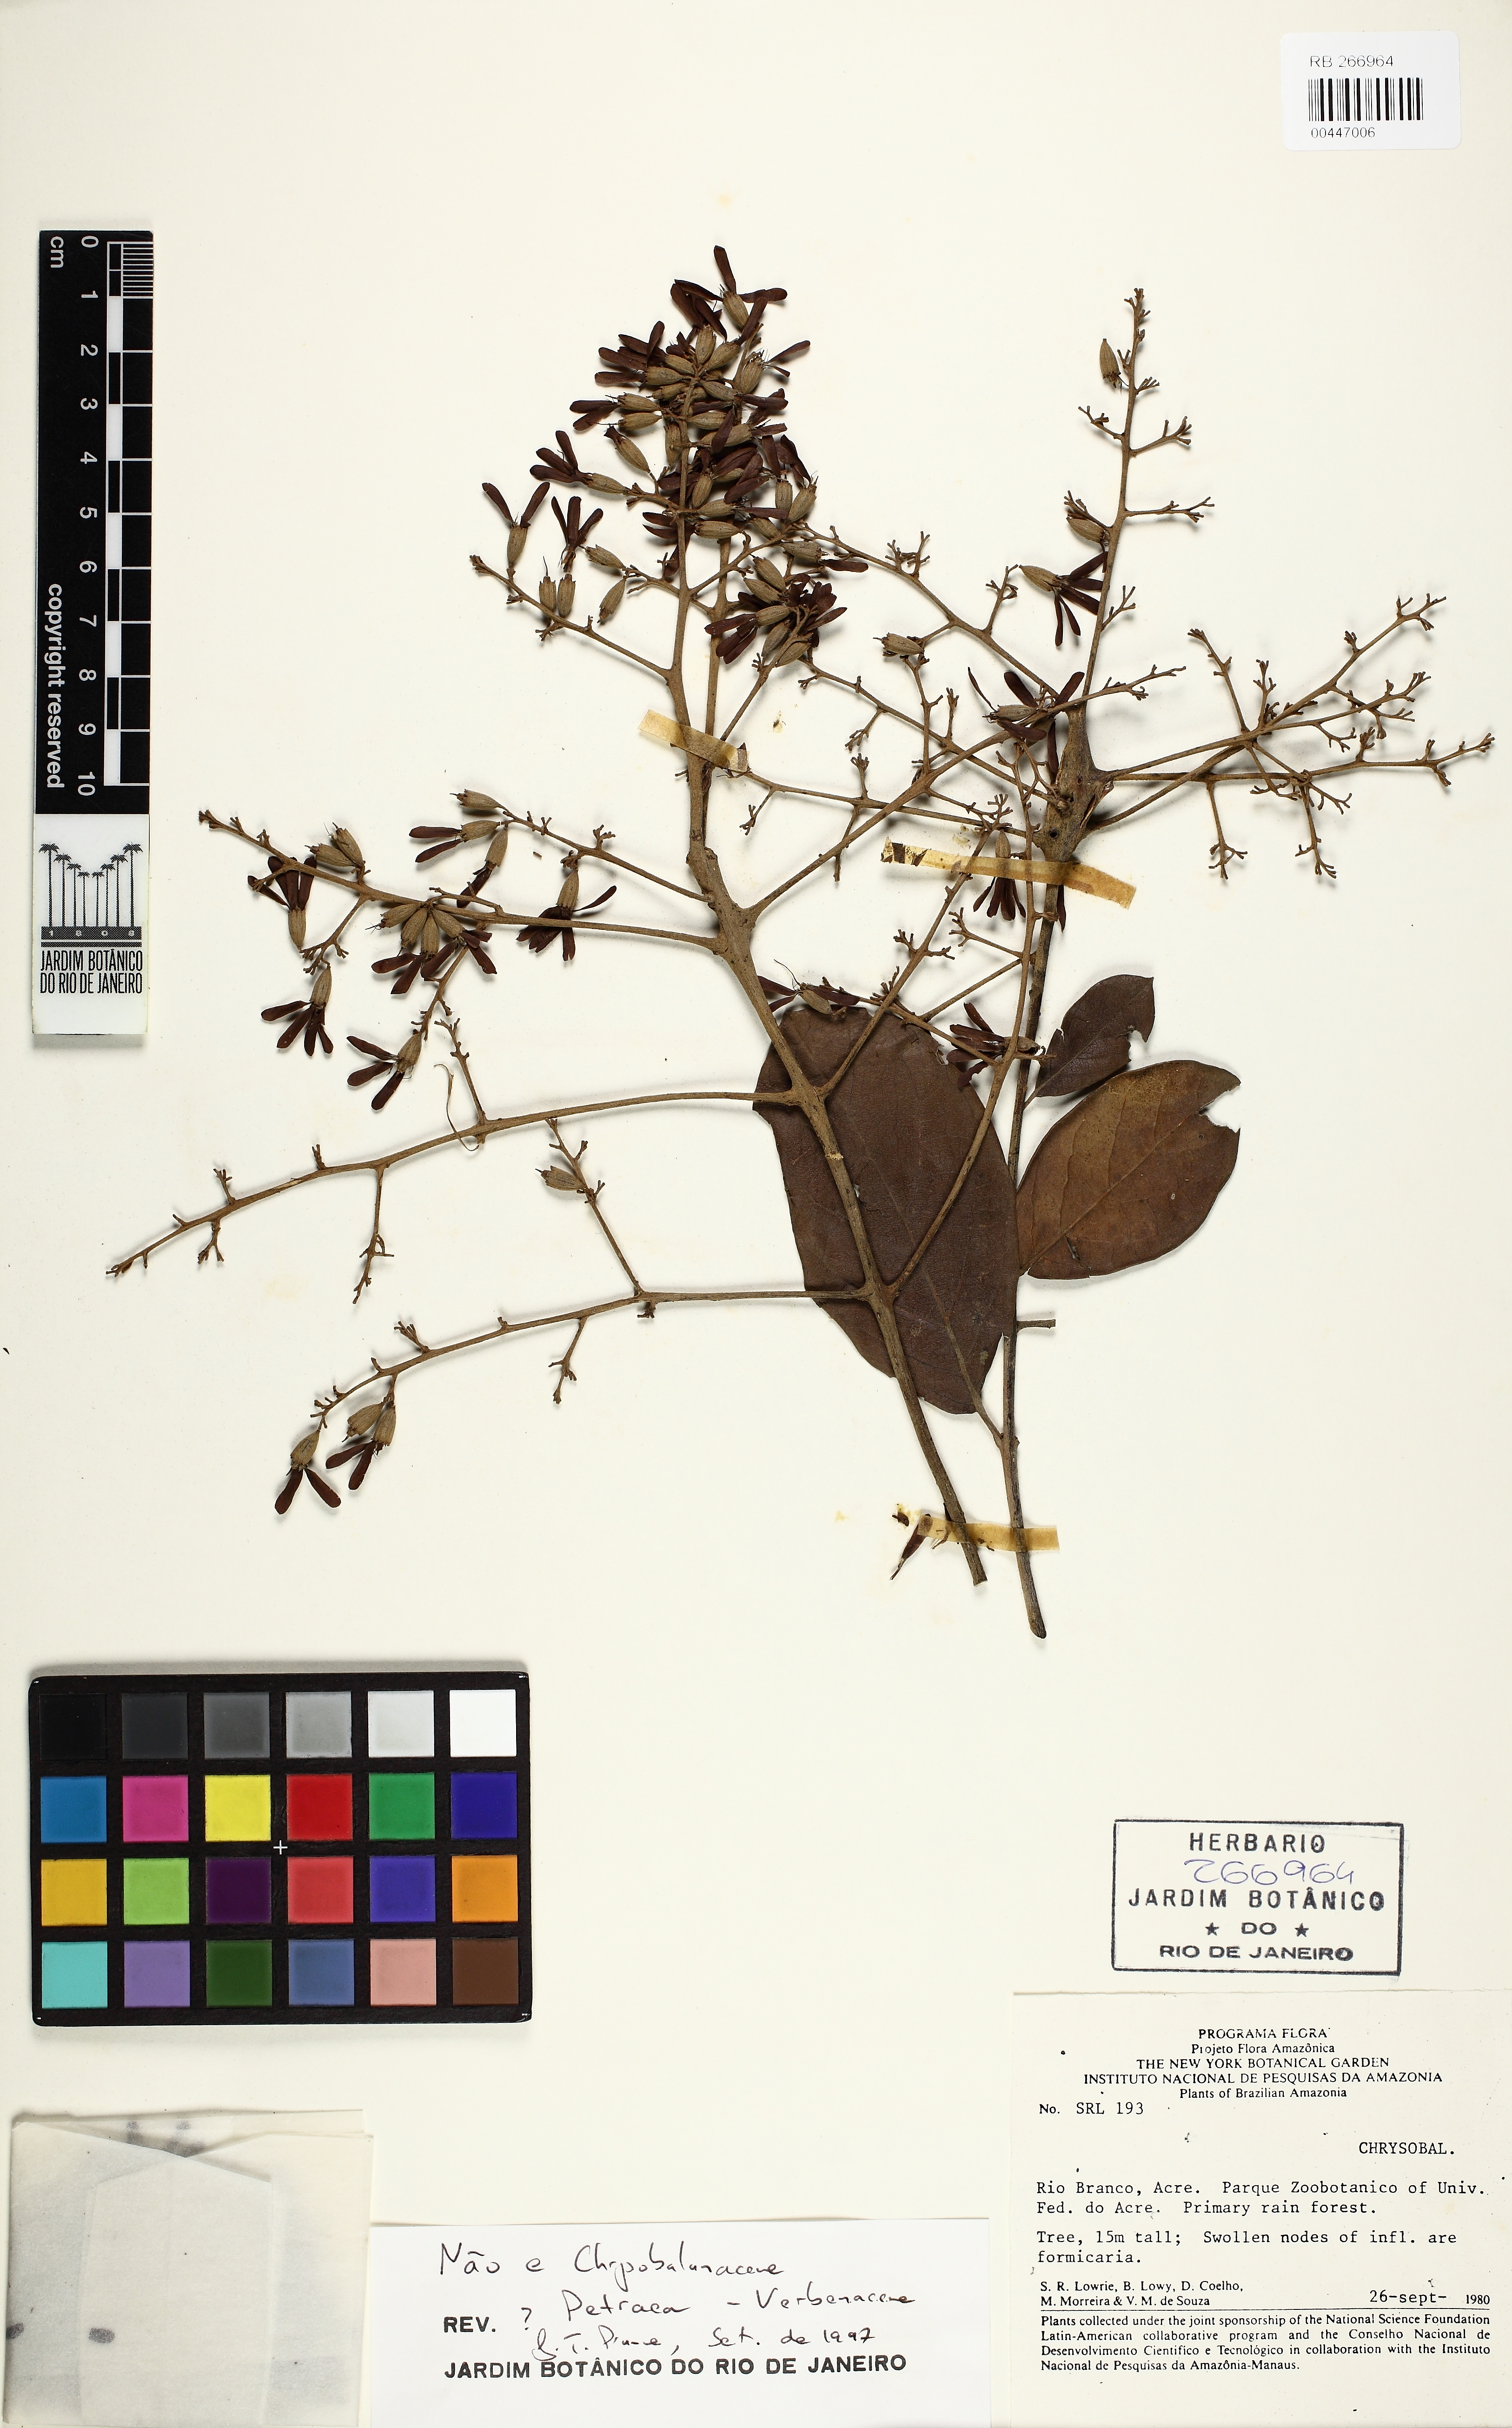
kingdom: Plantae
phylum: Tracheophyta
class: Magnoliopsida
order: Lamiales
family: Verbenaceae
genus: Petrea
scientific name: Petrea
